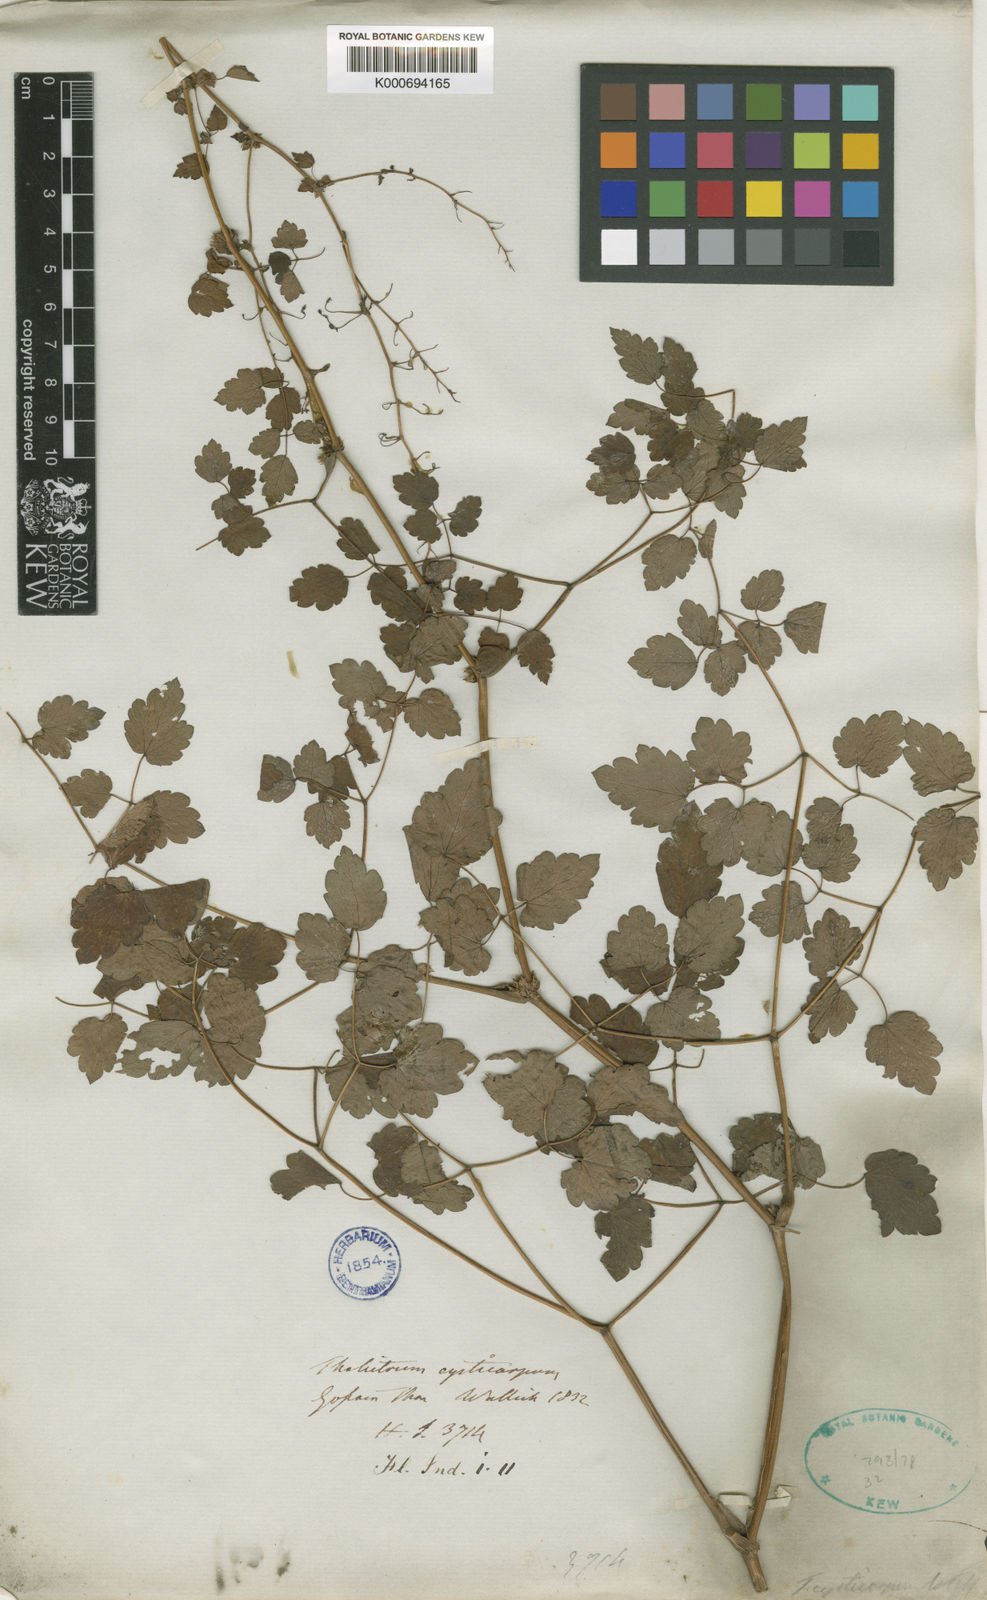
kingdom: Plantae
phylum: Tracheophyta
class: Magnoliopsida
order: Ranunculales
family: Ranunculaceae
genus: Thalictrum
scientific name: Thalictrum
